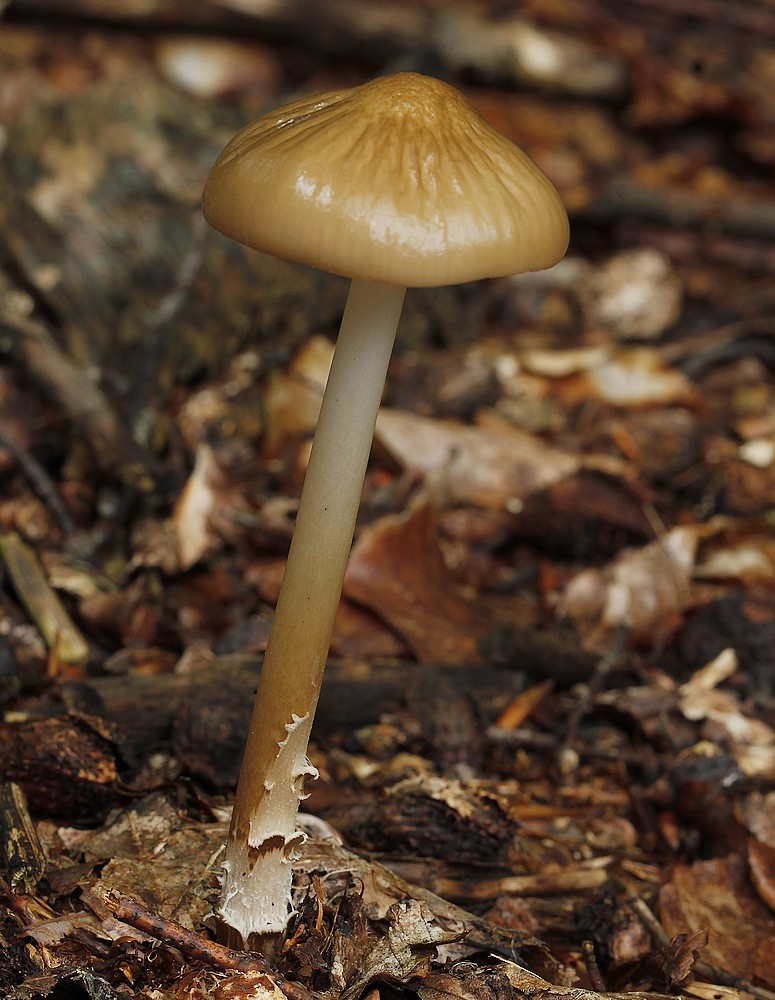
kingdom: Fungi
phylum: Basidiomycota
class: Agaricomycetes
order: Agaricales
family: Physalacriaceae
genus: Hymenopellis
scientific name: Hymenopellis radicata
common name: almindelig pælerodshat
